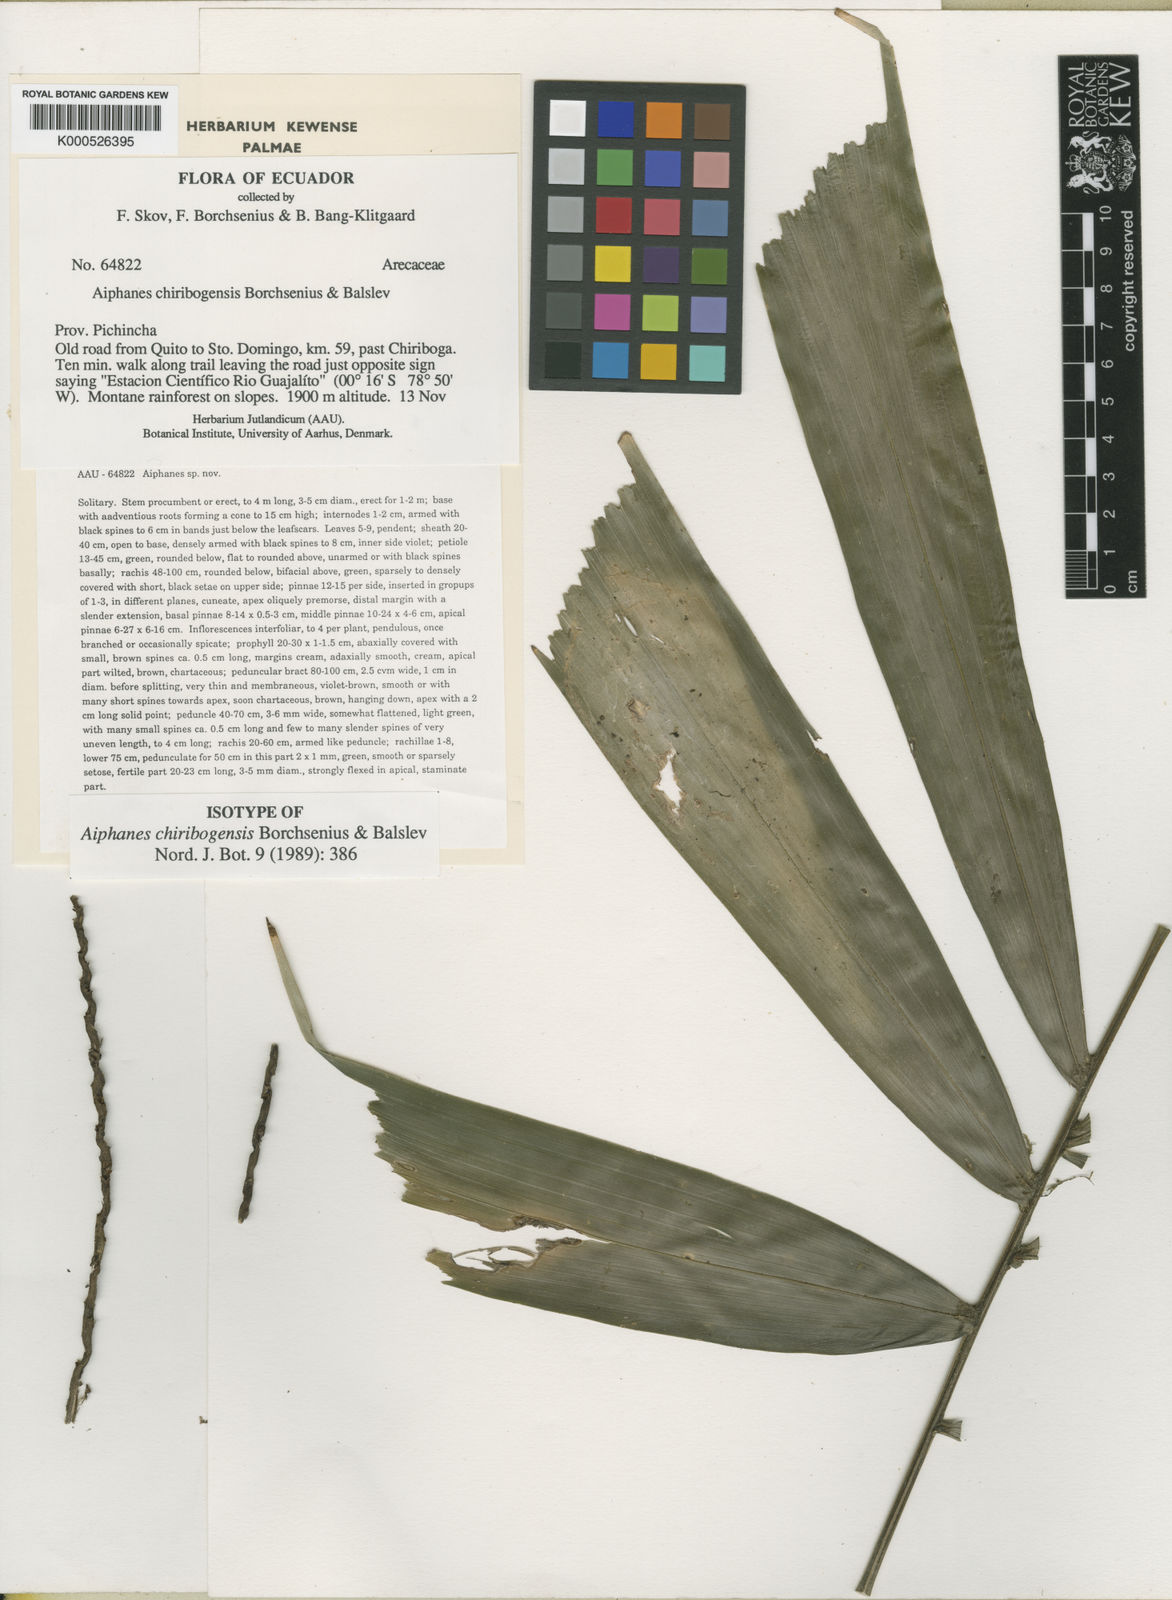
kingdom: Plantae
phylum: Tracheophyta
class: Liliopsida
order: Arecales
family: Arecaceae
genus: Aiphanes
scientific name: Aiphanes chiribogensis
